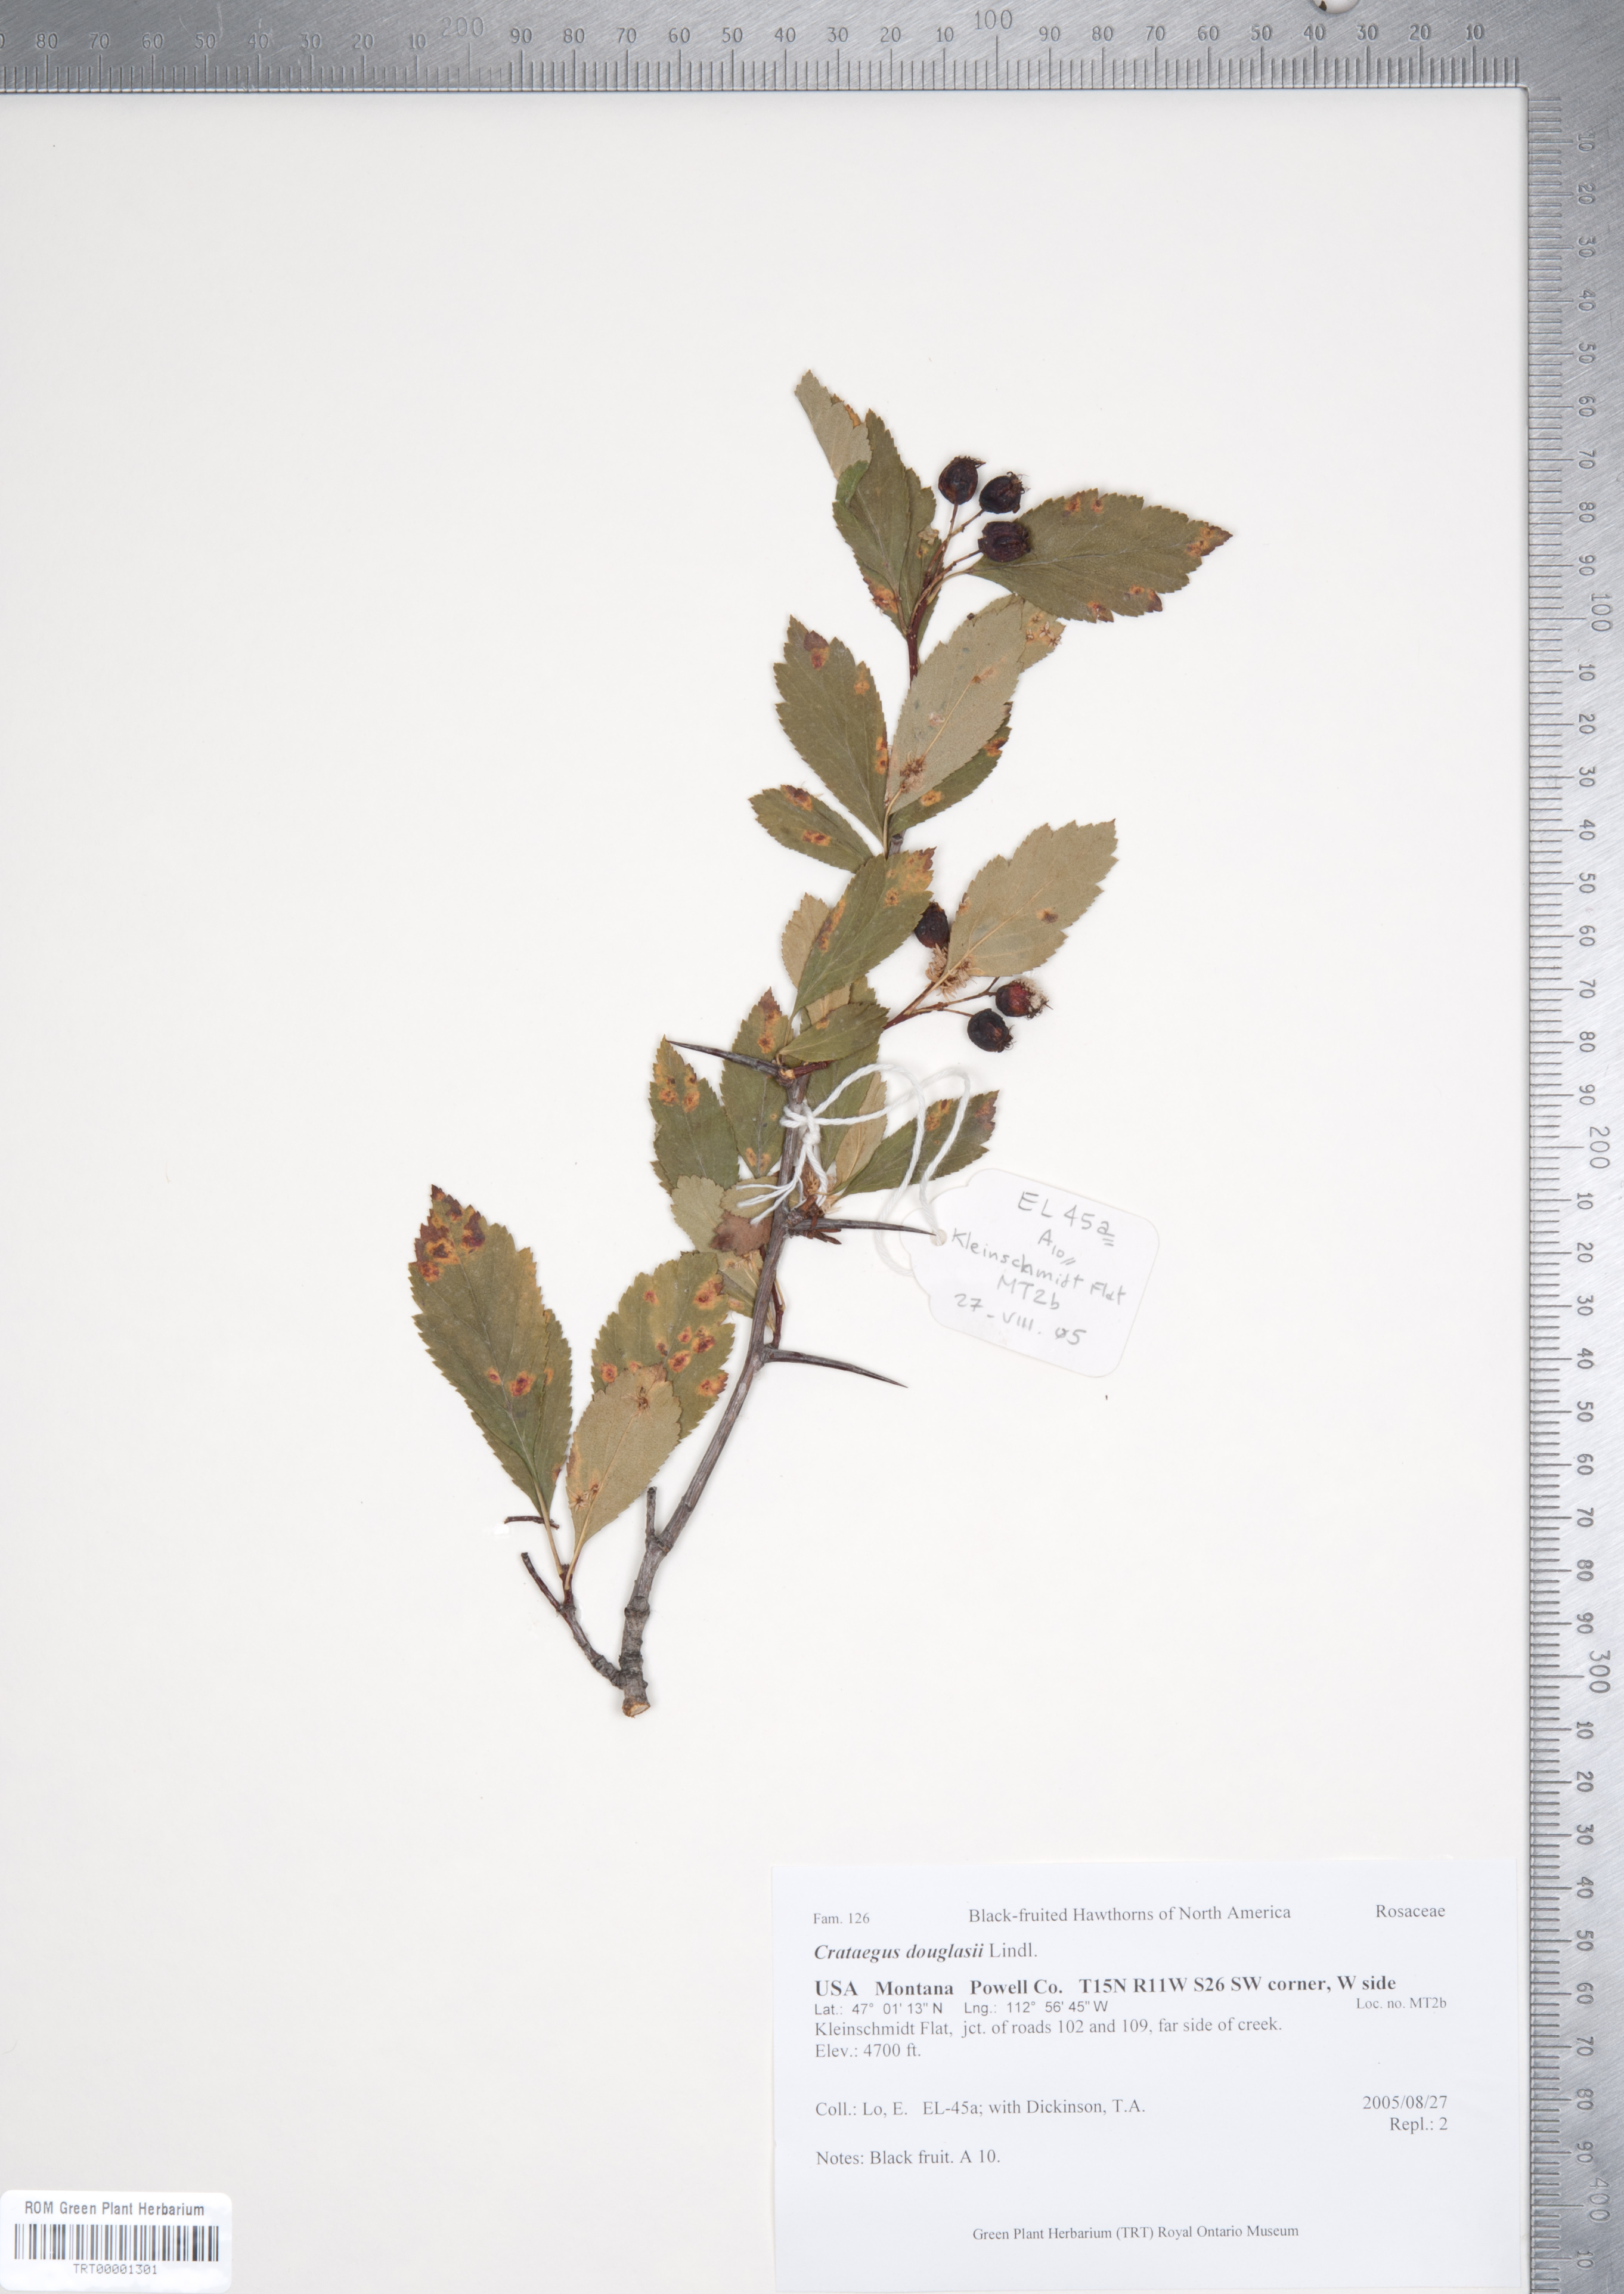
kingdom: Plantae
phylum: Tracheophyta
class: Magnoliopsida
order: Rosales
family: Rosaceae
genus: Crataegus
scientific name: Crataegus douglasii
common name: Black hawthorn
